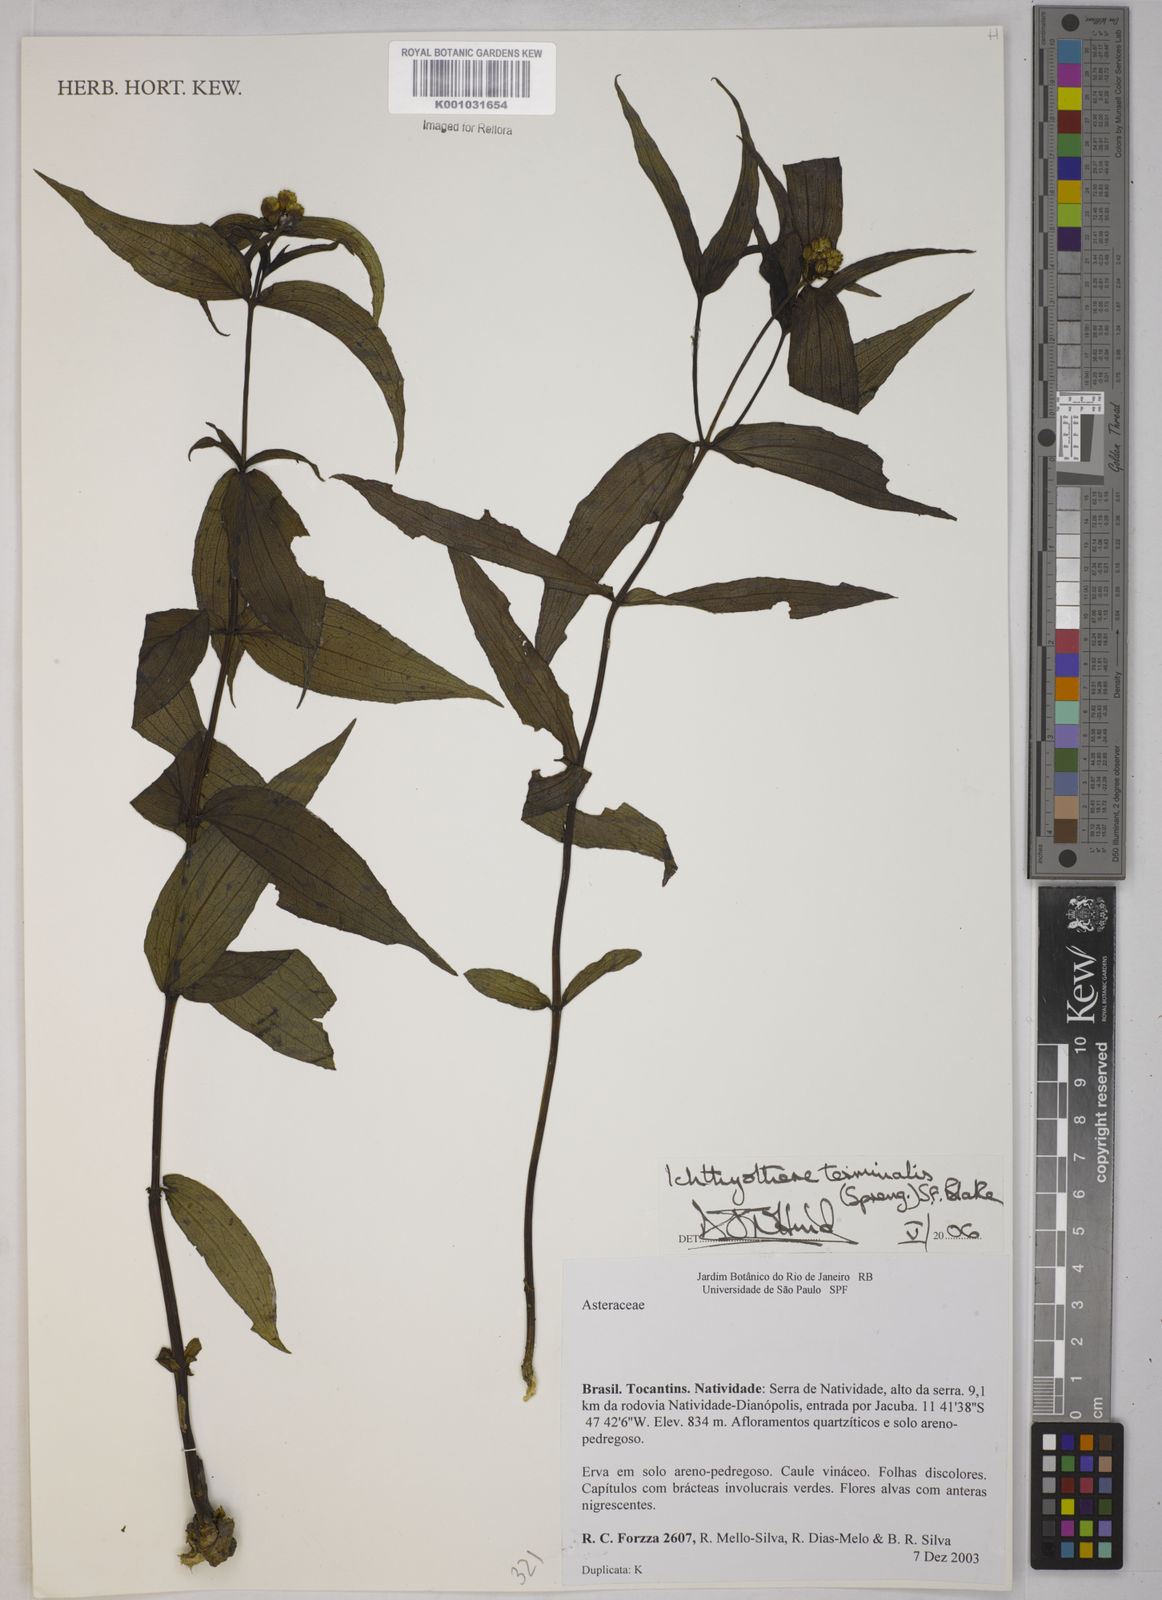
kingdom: Plantae
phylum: Tracheophyta
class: Magnoliopsida
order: Asterales
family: Asteraceae
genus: Ichthyothere
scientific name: Ichthyothere terminalis
